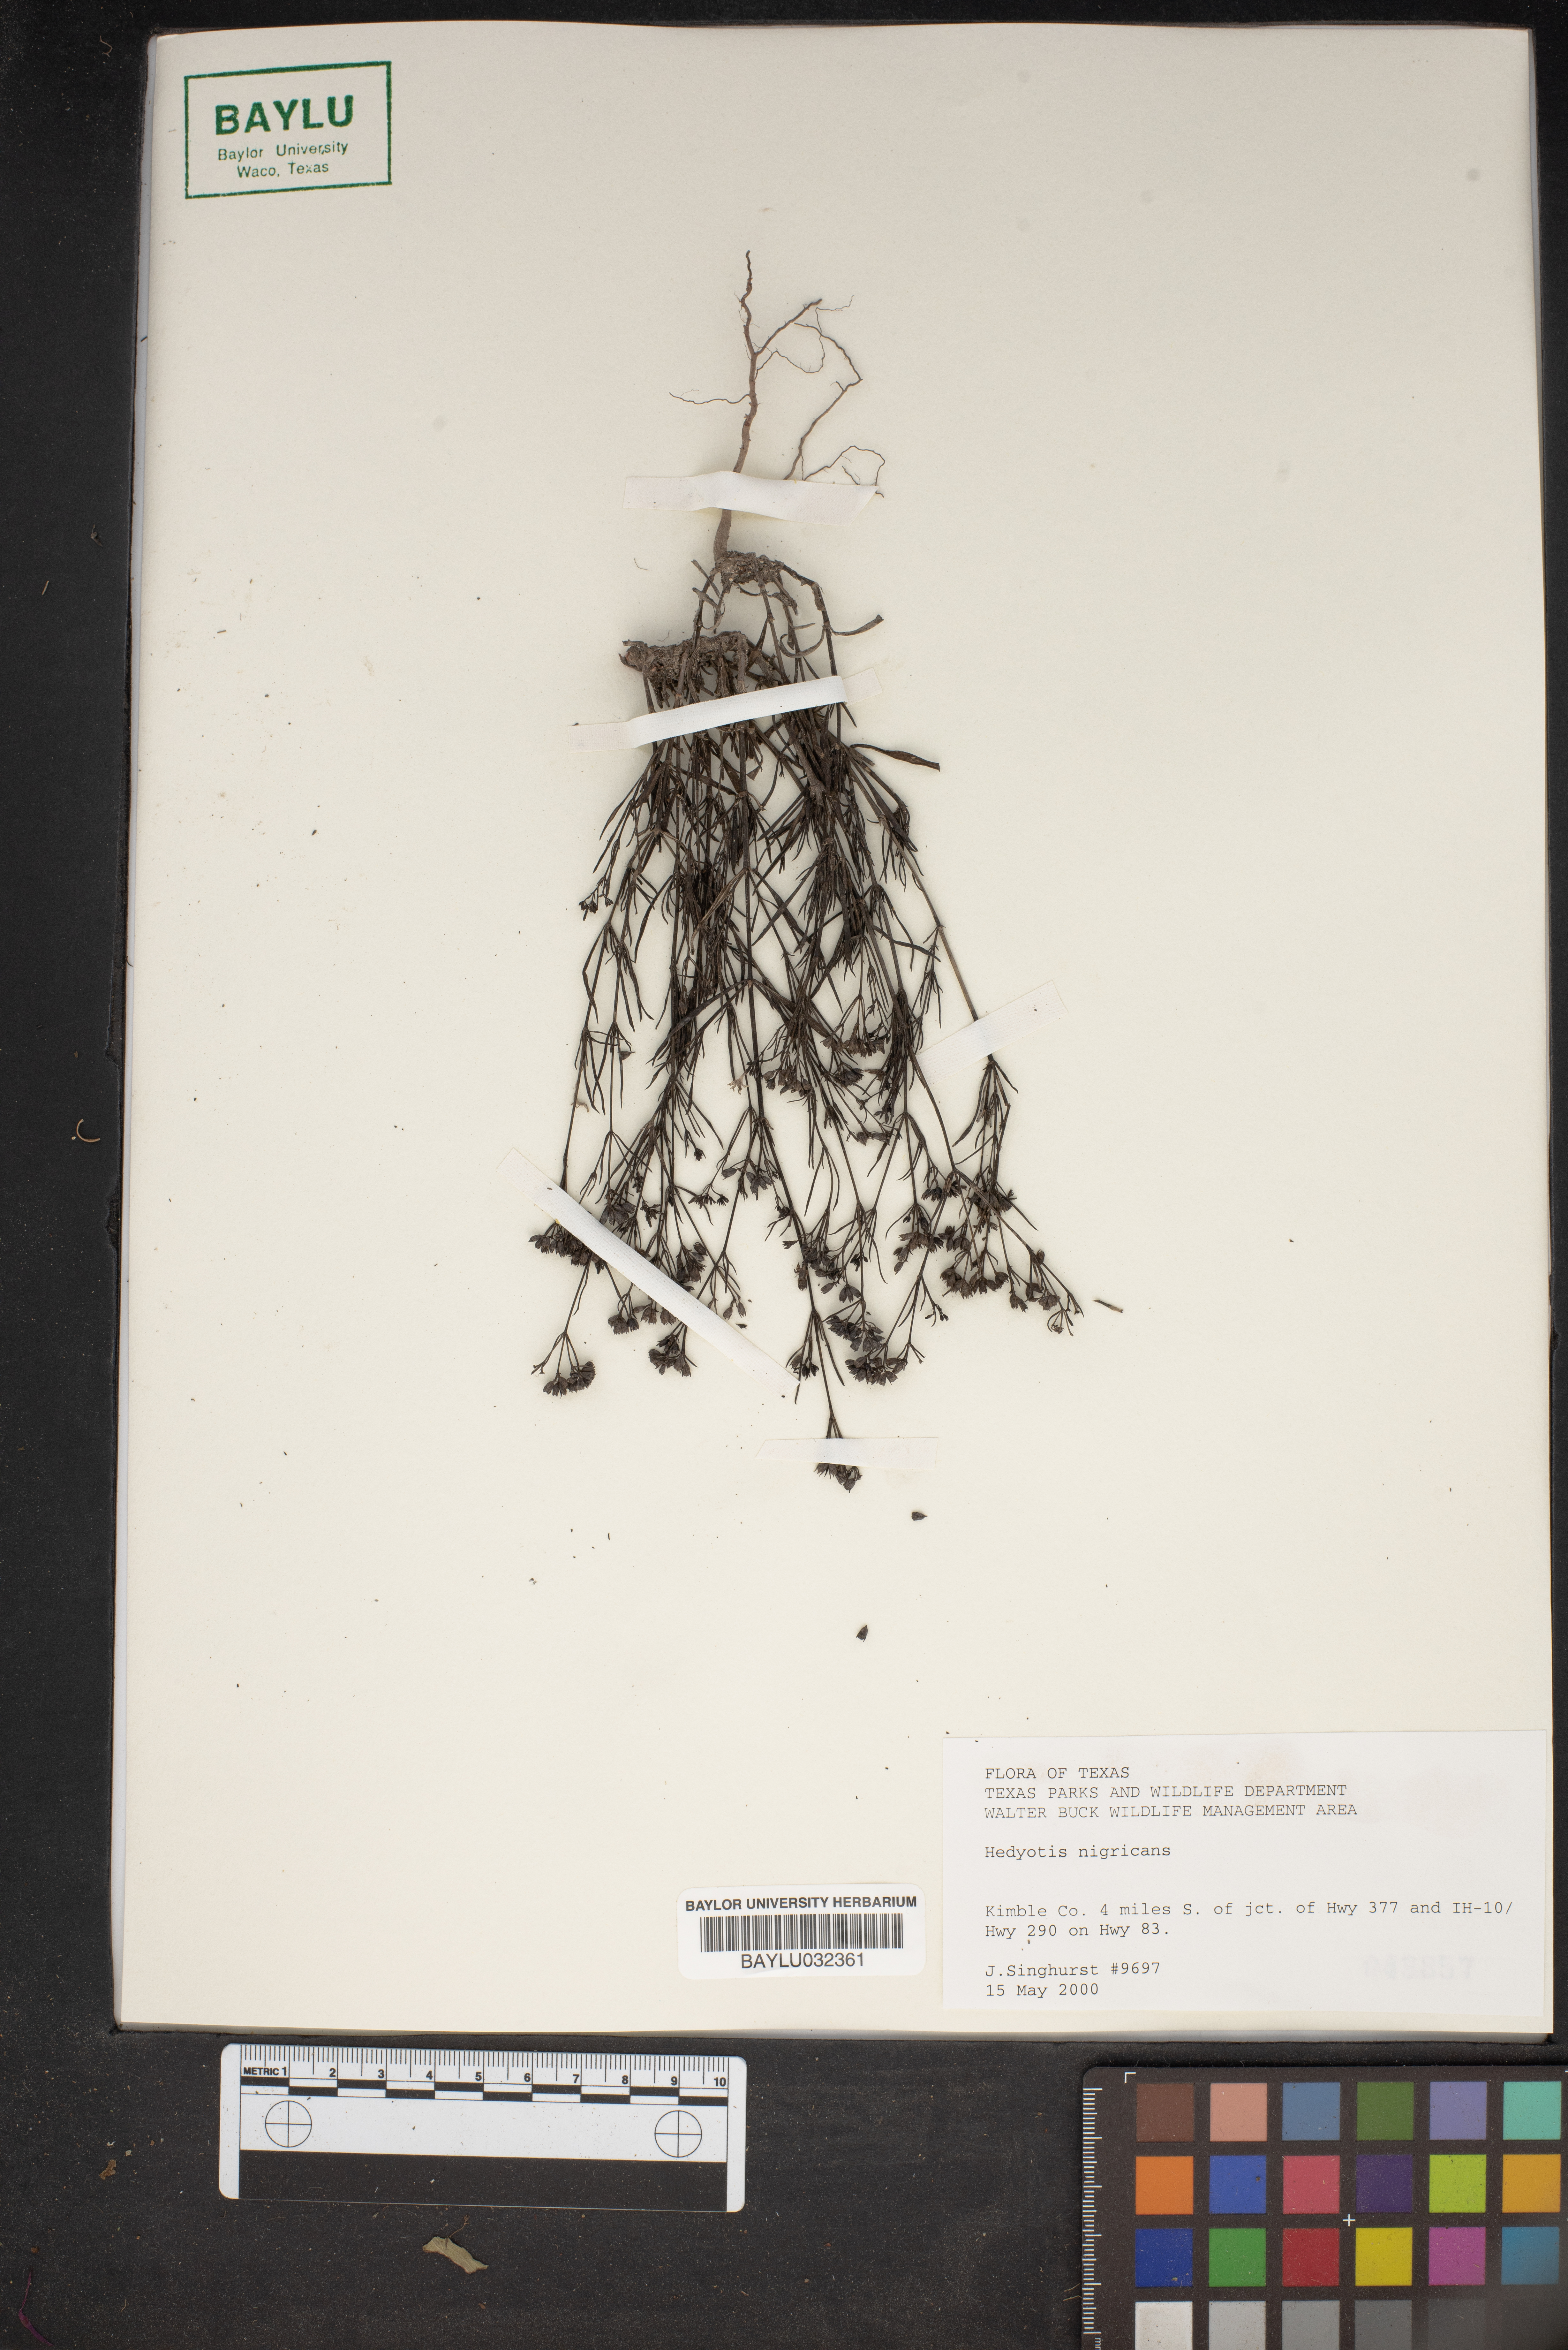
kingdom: Plantae
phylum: Tracheophyta
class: Magnoliopsida
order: Gentianales
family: Rubiaceae
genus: Stenaria
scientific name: Stenaria nigricans
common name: Diamondflowers
